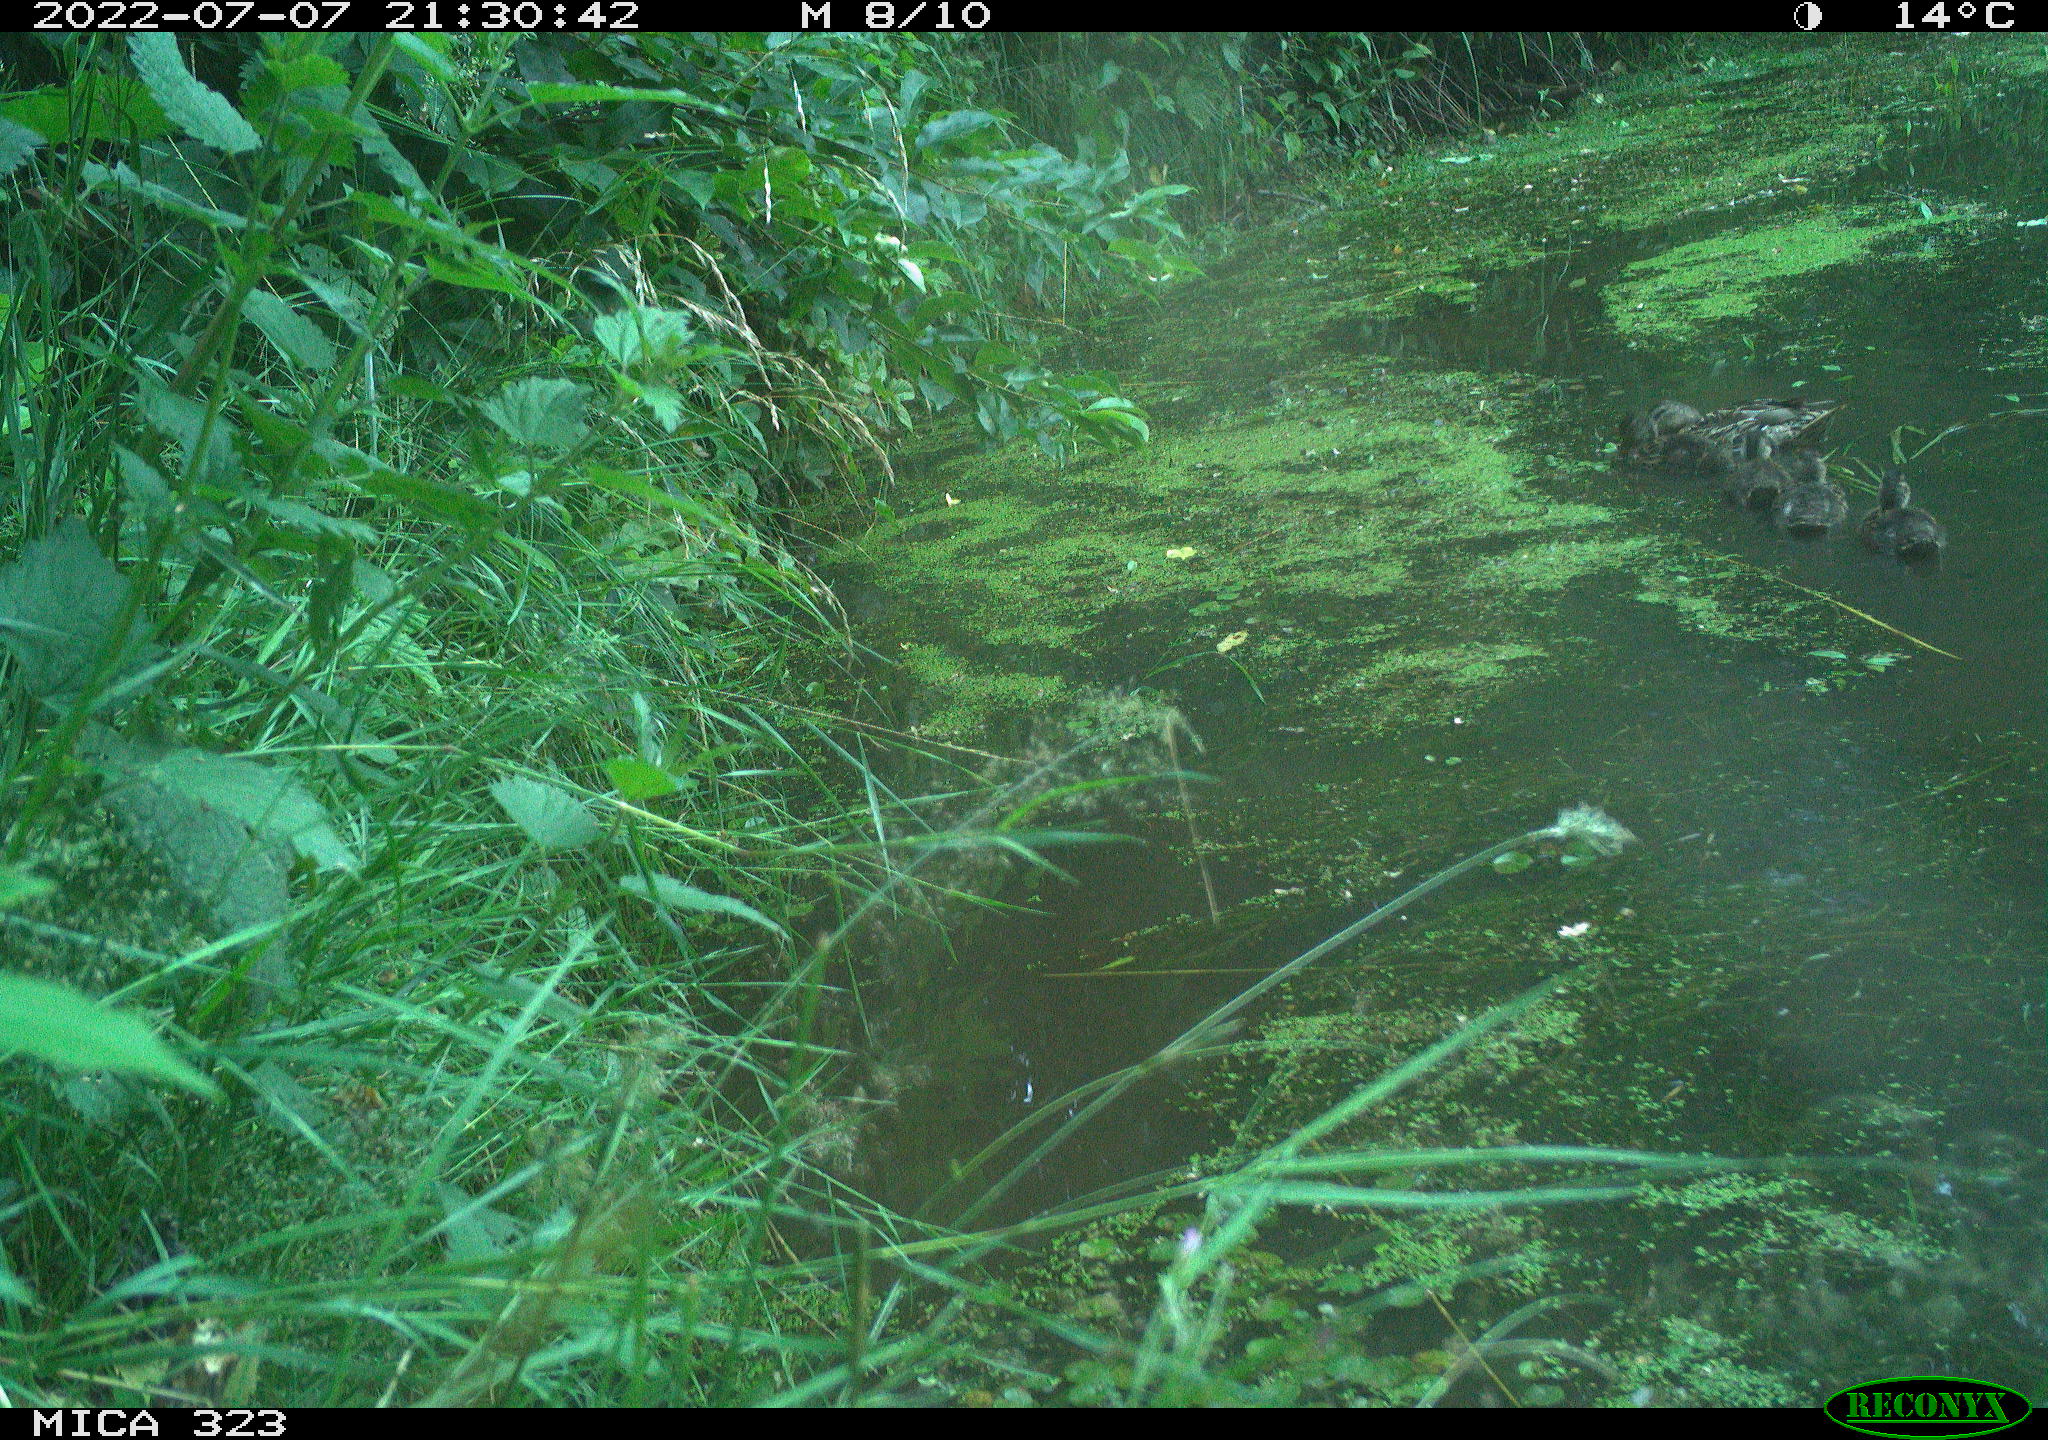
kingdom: Animalia
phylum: Chordata
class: Aves
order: Anseriformes
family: Anatidae
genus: Anas
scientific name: Anas platyrhynchos
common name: Mallard
